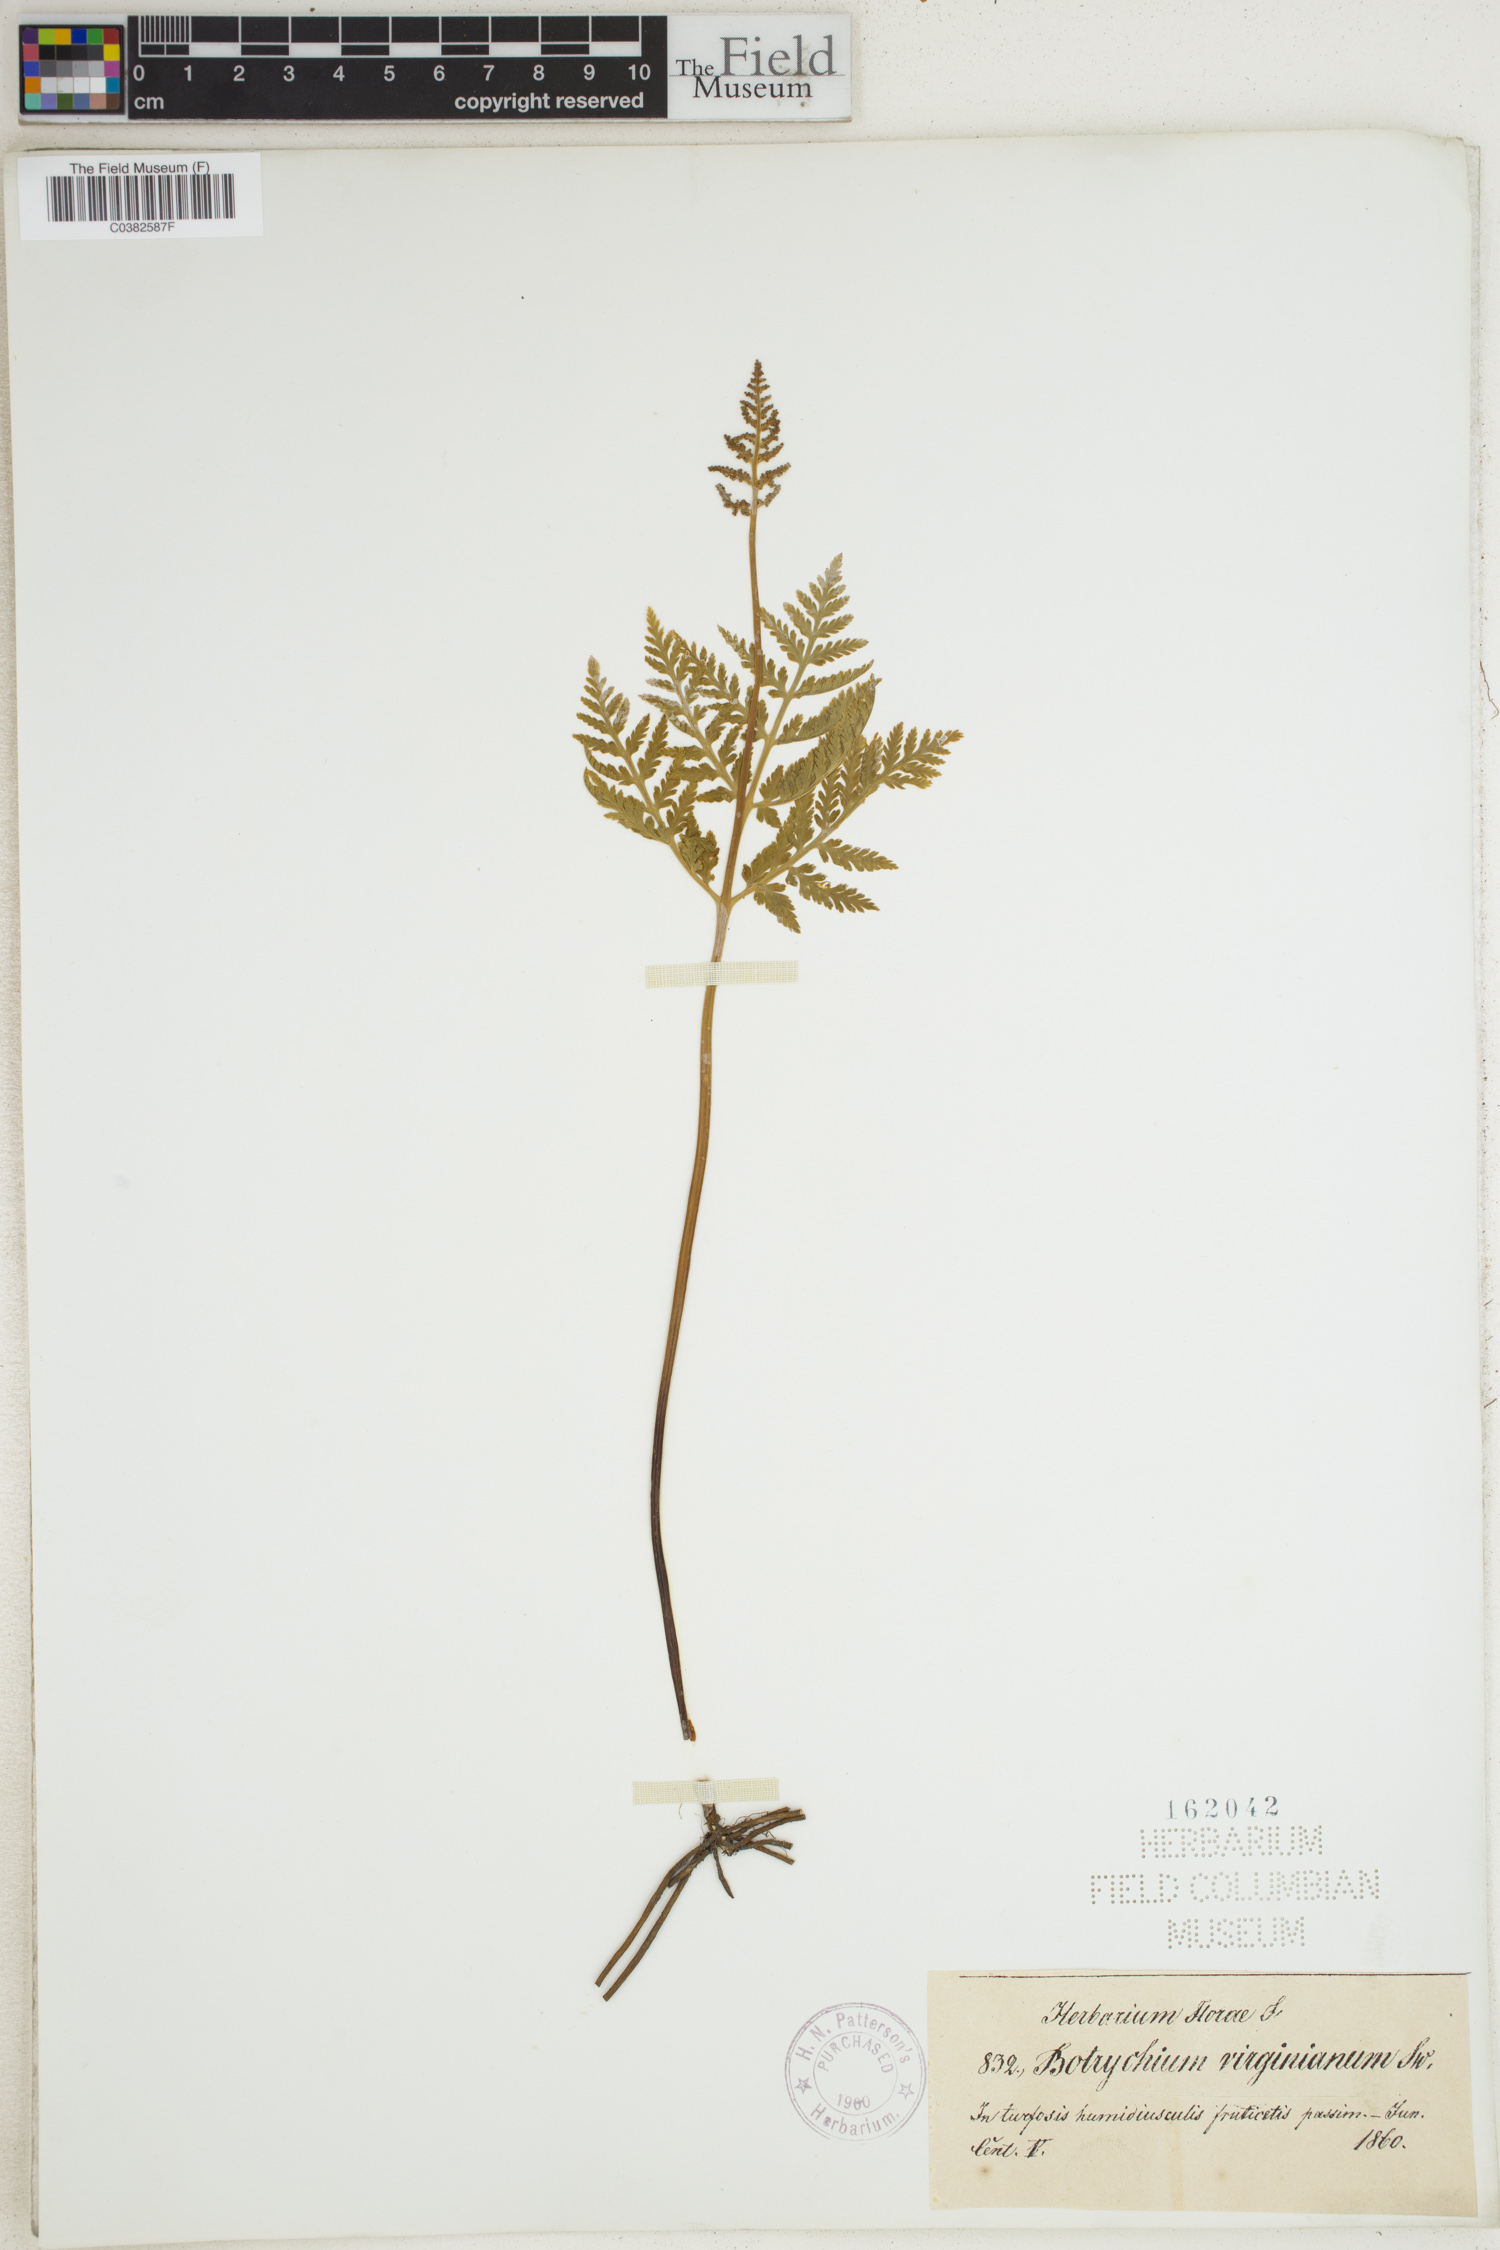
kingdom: Plantae
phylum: Tracheophyta
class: Polypodiopsida
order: Ophioglossales
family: Ophioglossaceae
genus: Botrypus
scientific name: Botrypus virginianus
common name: Common grapefern
